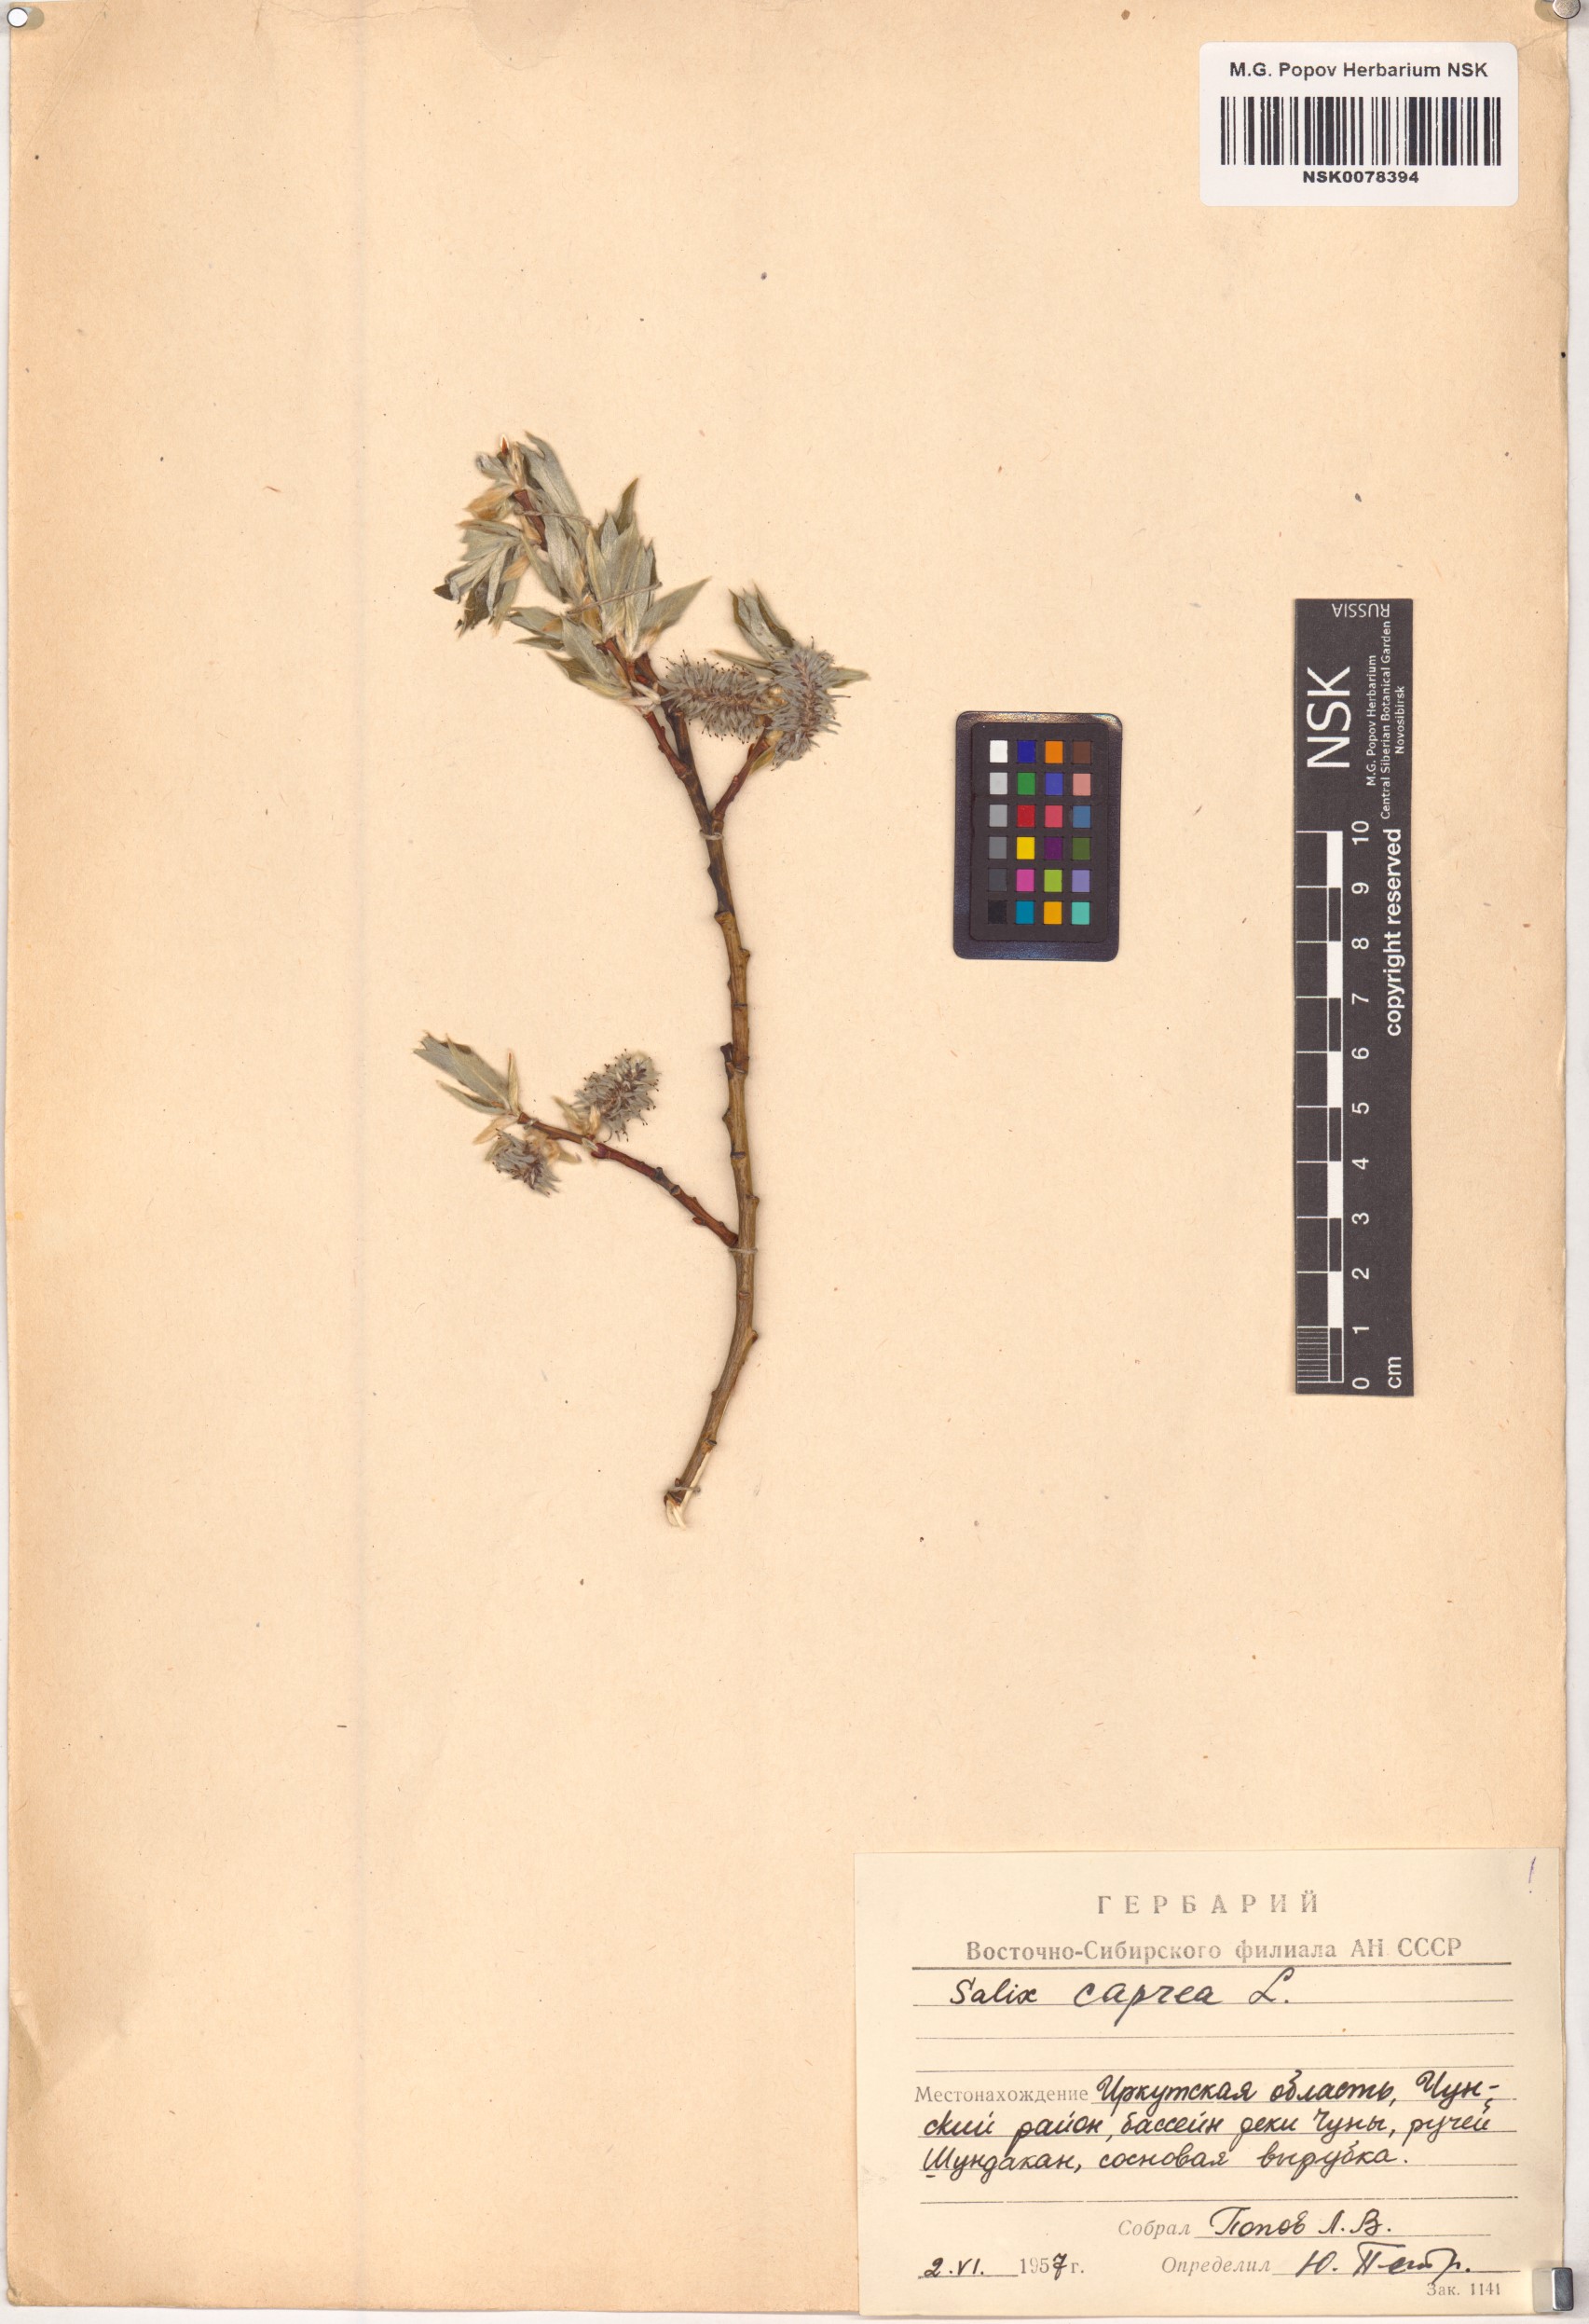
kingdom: Plantae
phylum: Tracheophyta
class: Magnoliopsida
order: Malpighiales
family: Salicaceae
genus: Salix
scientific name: Salix caprea
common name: Goat willow
